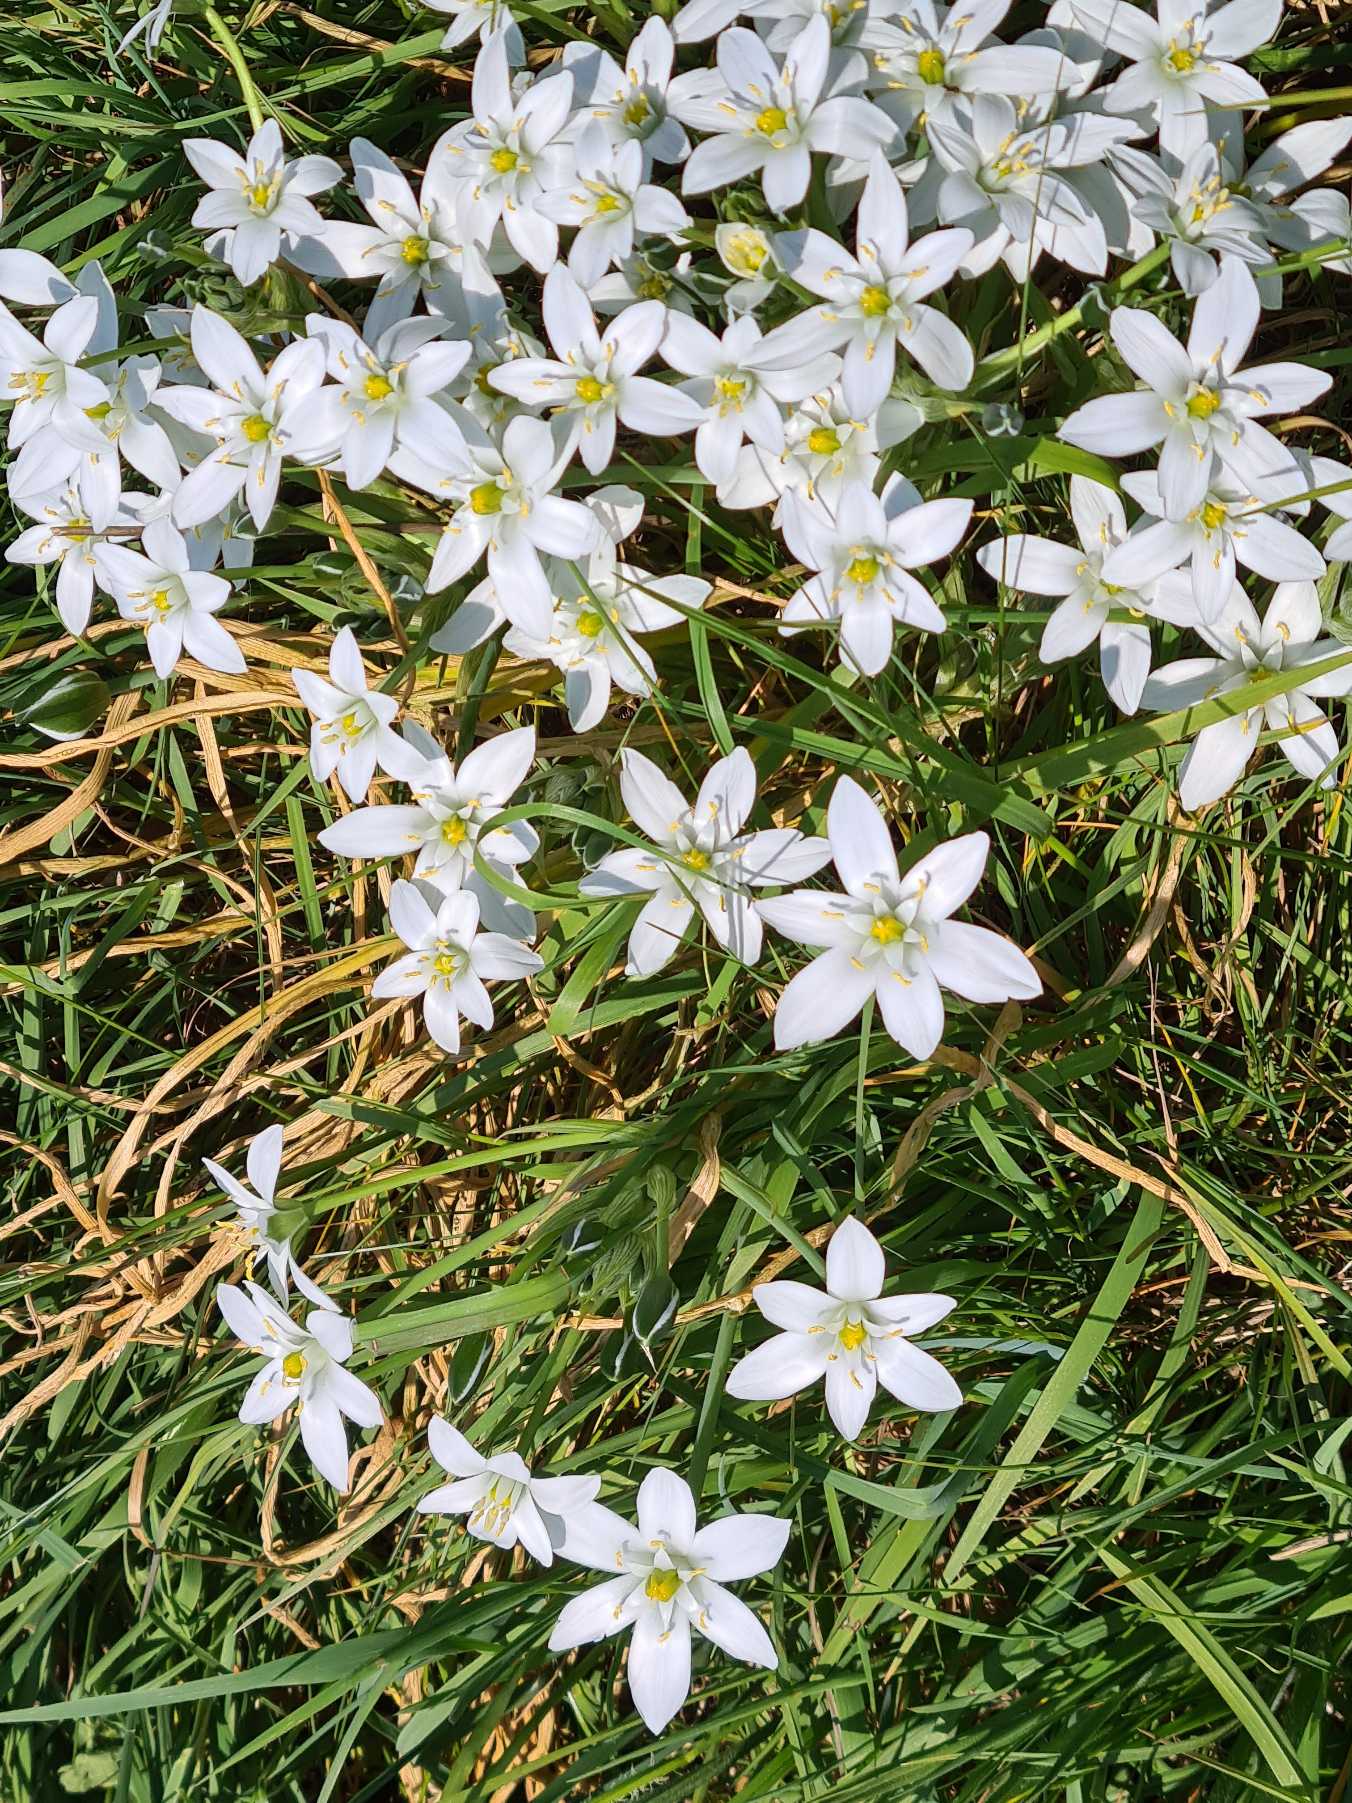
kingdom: Plantae
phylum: Tracheophyta
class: Liliopsida
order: Asparagales
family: Asparagaceae
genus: Ornithogalum
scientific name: Ornithogalum umbellatum
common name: Kost-fuglemælk
